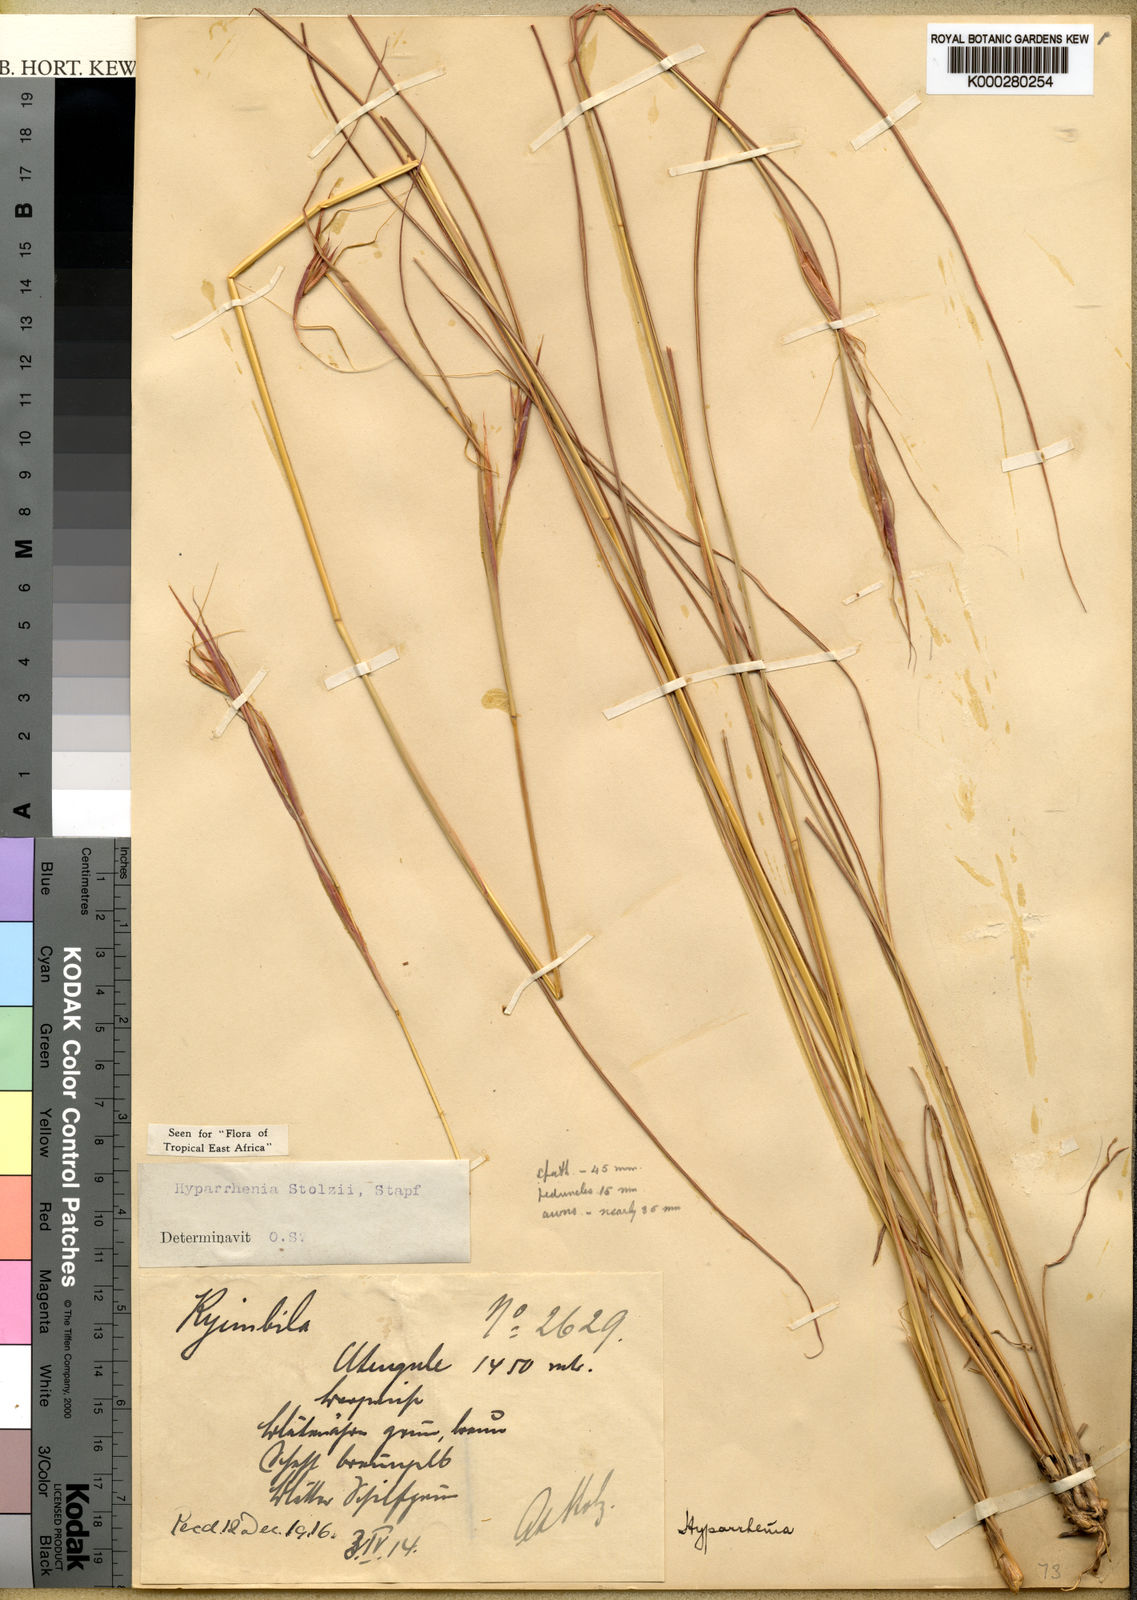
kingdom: Plantae
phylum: Tracheophyta
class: Liliopsida
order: Poales
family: Poaceae
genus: Hyparrhenia
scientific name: Hyparrhenia newtonii
